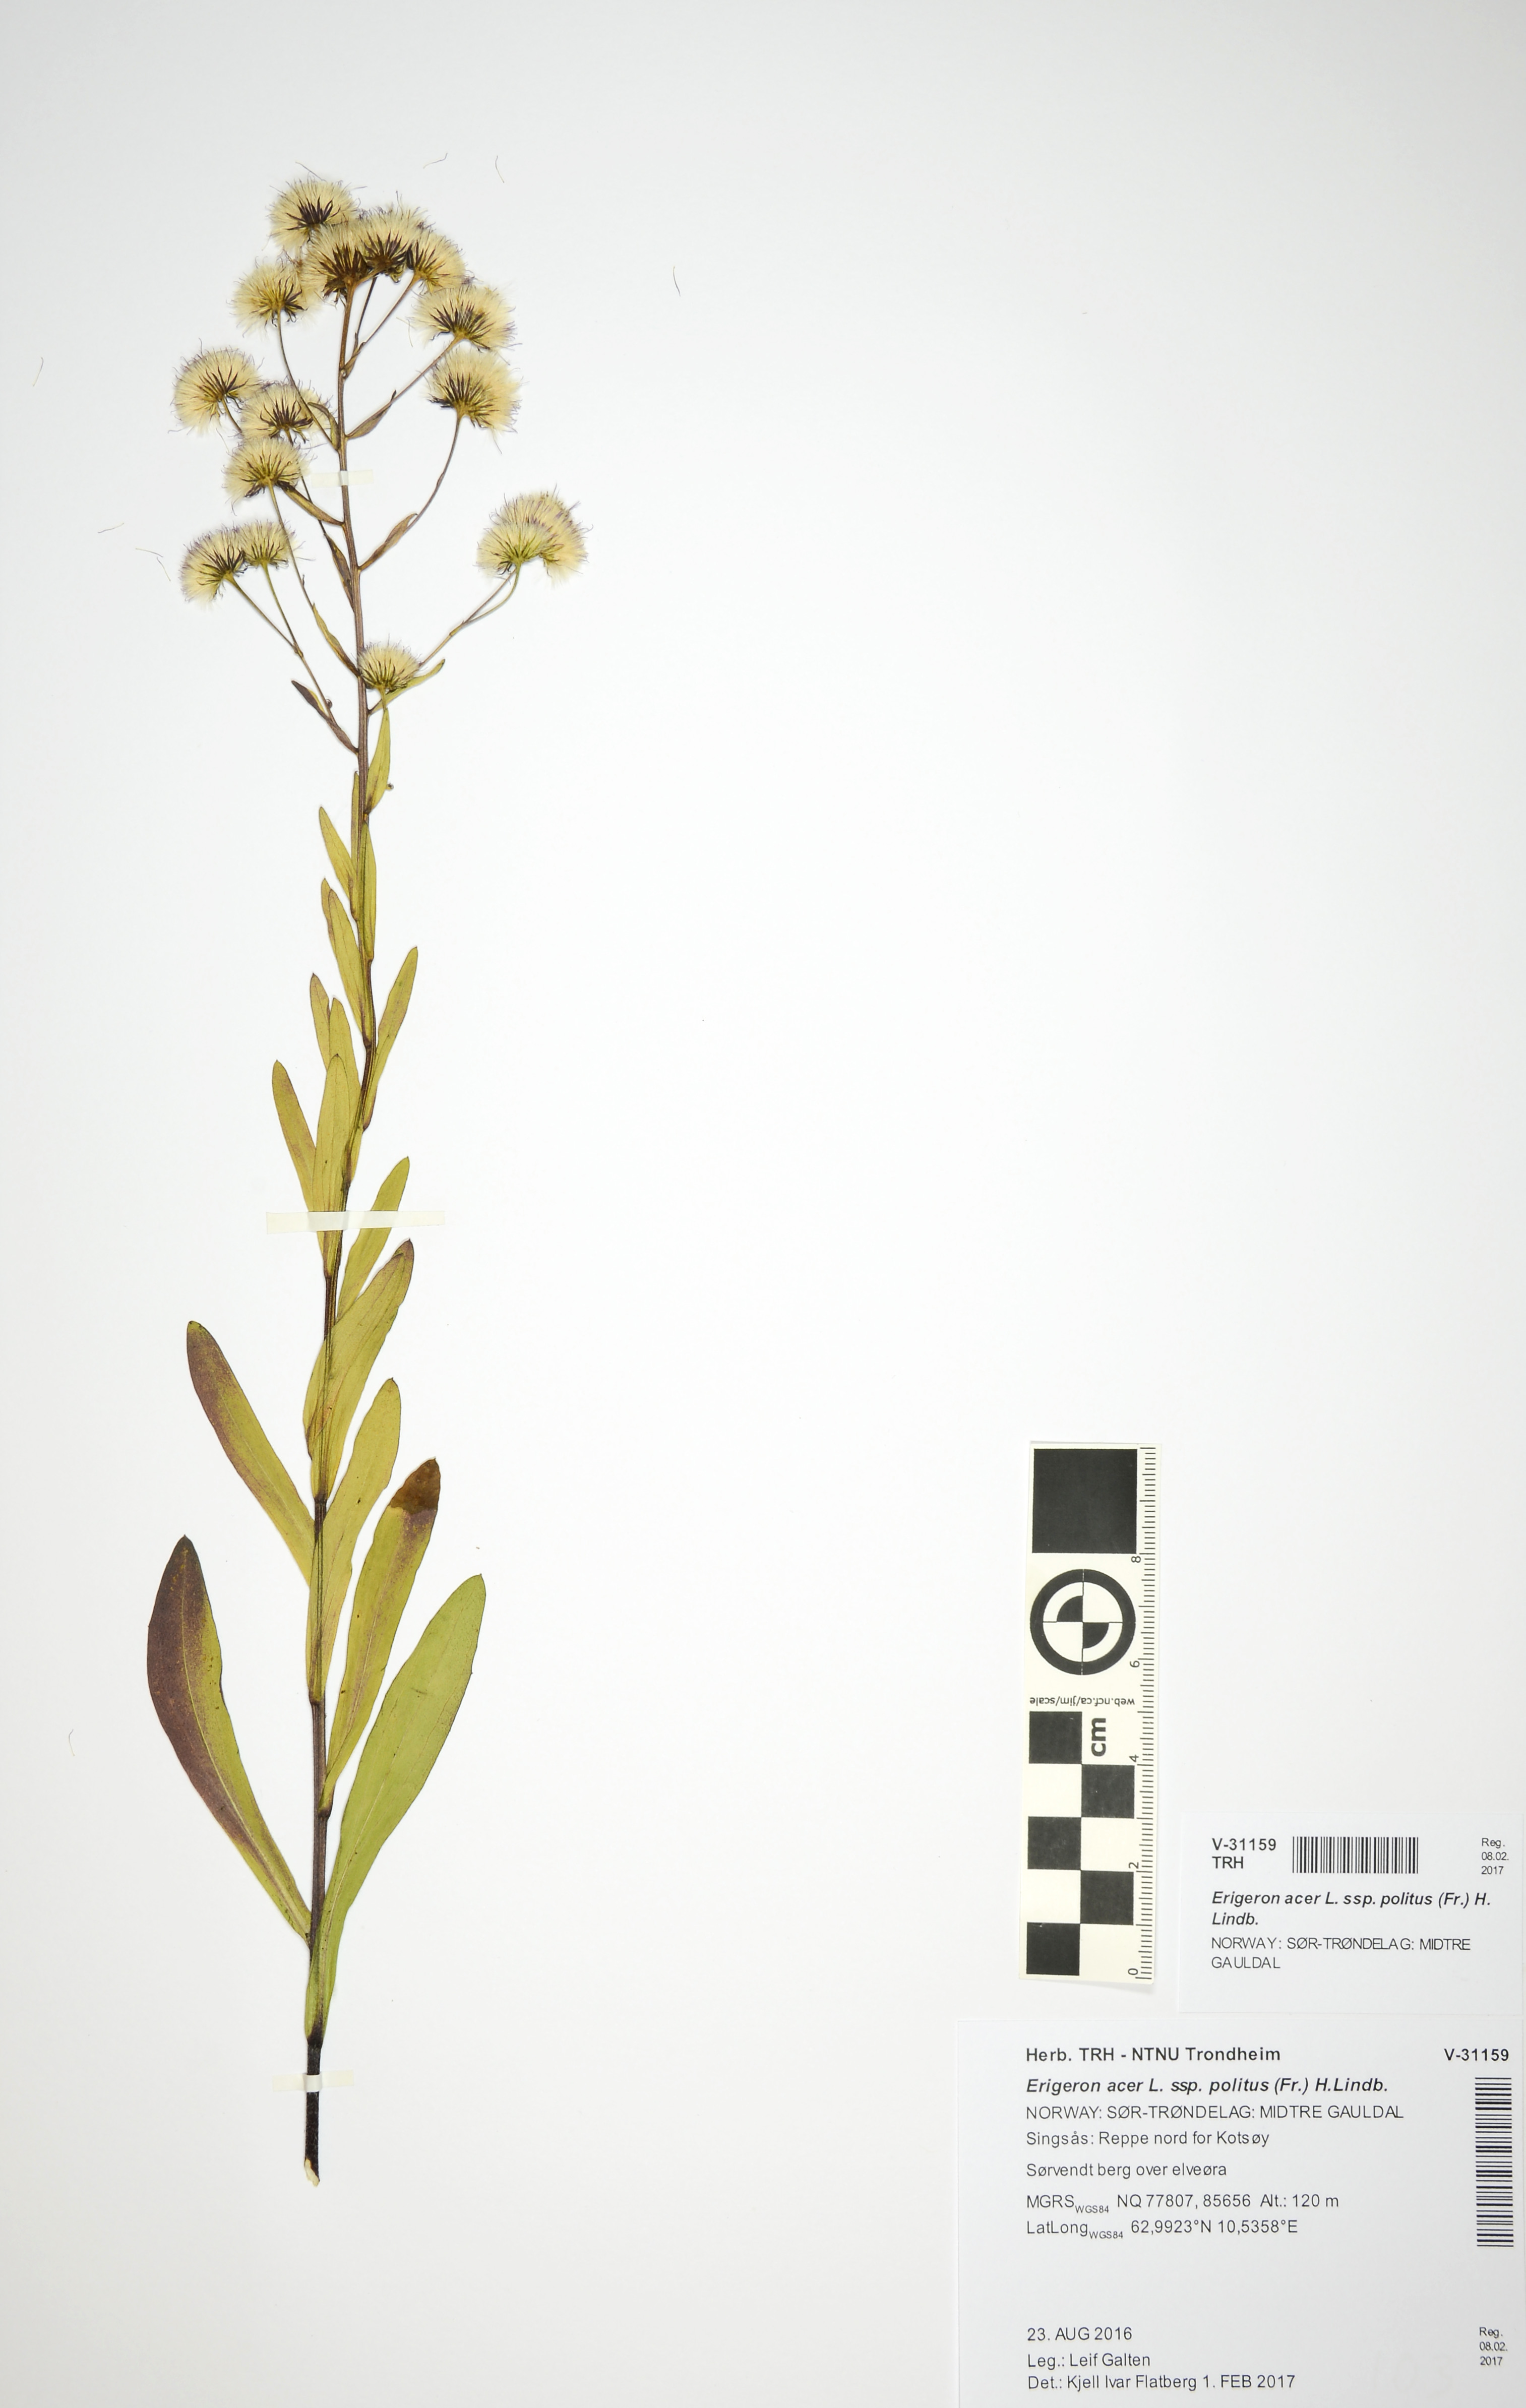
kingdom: Plantae
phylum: Tracheophyta
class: Magnoliopsida
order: Asterales
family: Asteraceae
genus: Erigeron
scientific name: Erigeron politus
